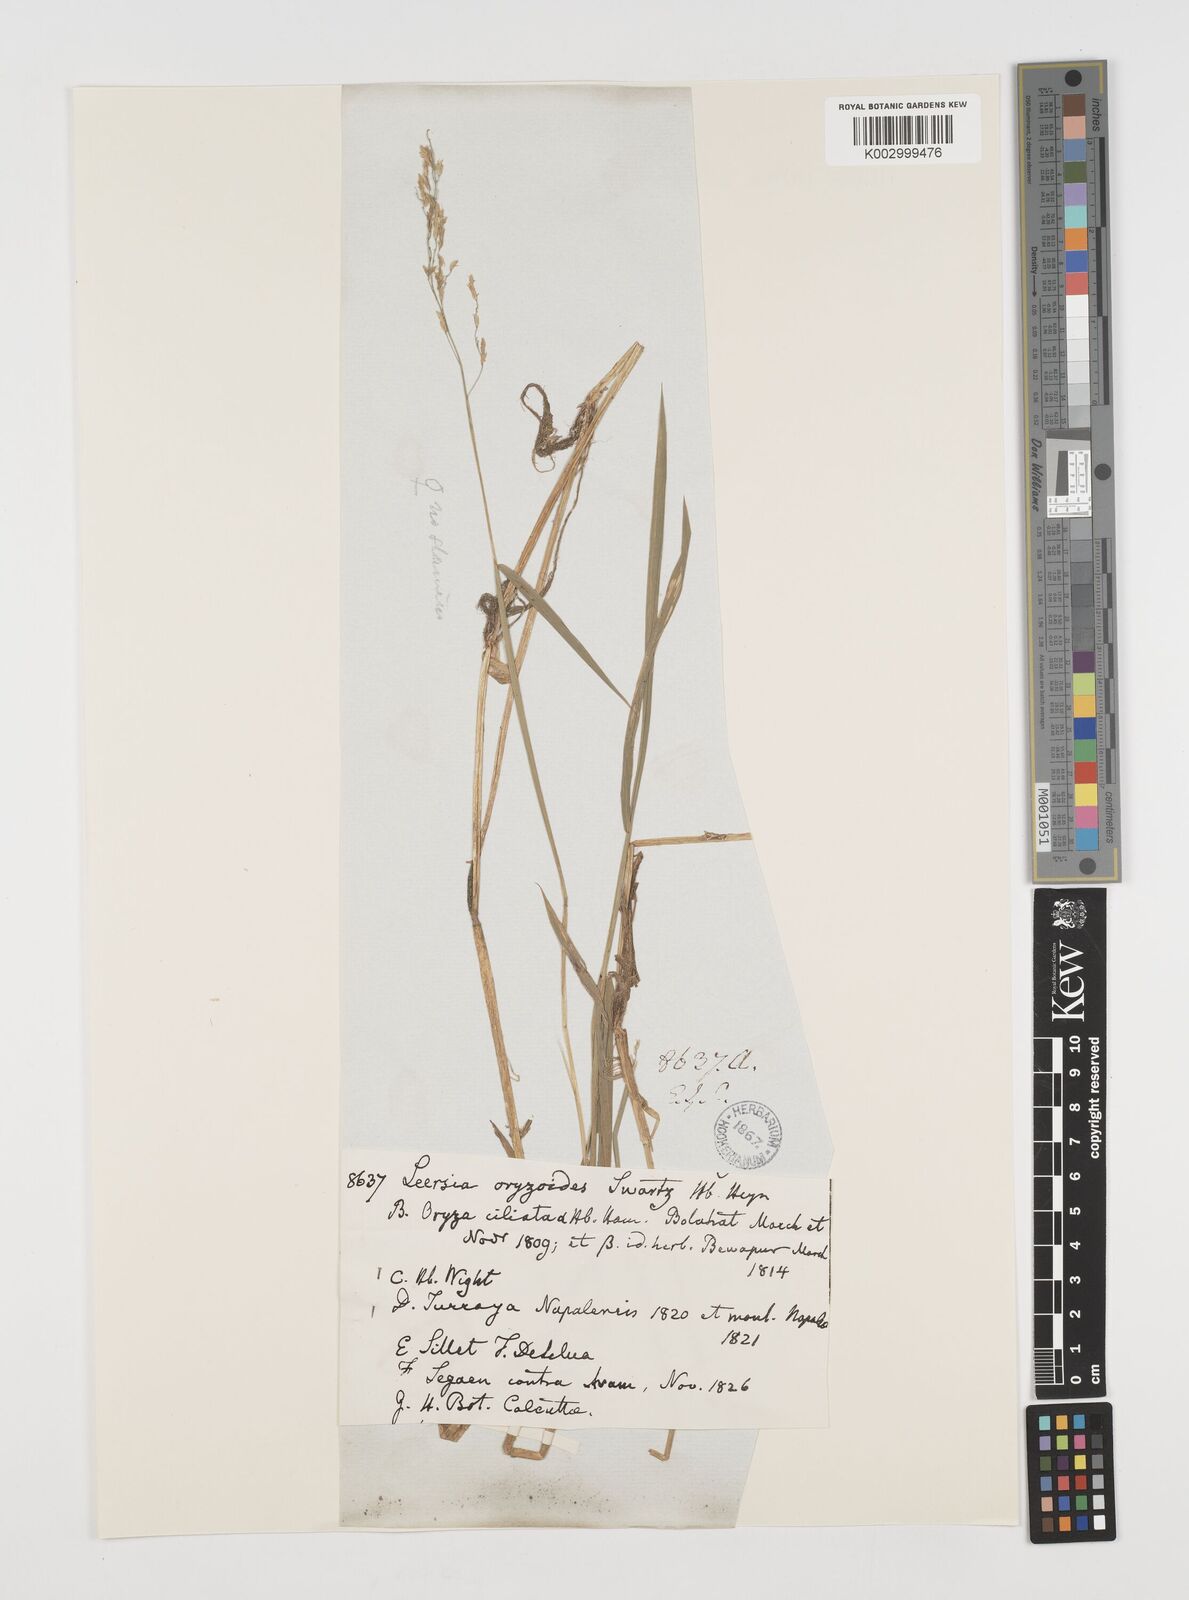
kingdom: Plantae
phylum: Tracheophyta
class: Liliopsida
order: Poales
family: Poaceae
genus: Leersia
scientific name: Leersia hexandra
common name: Southern cut grass
